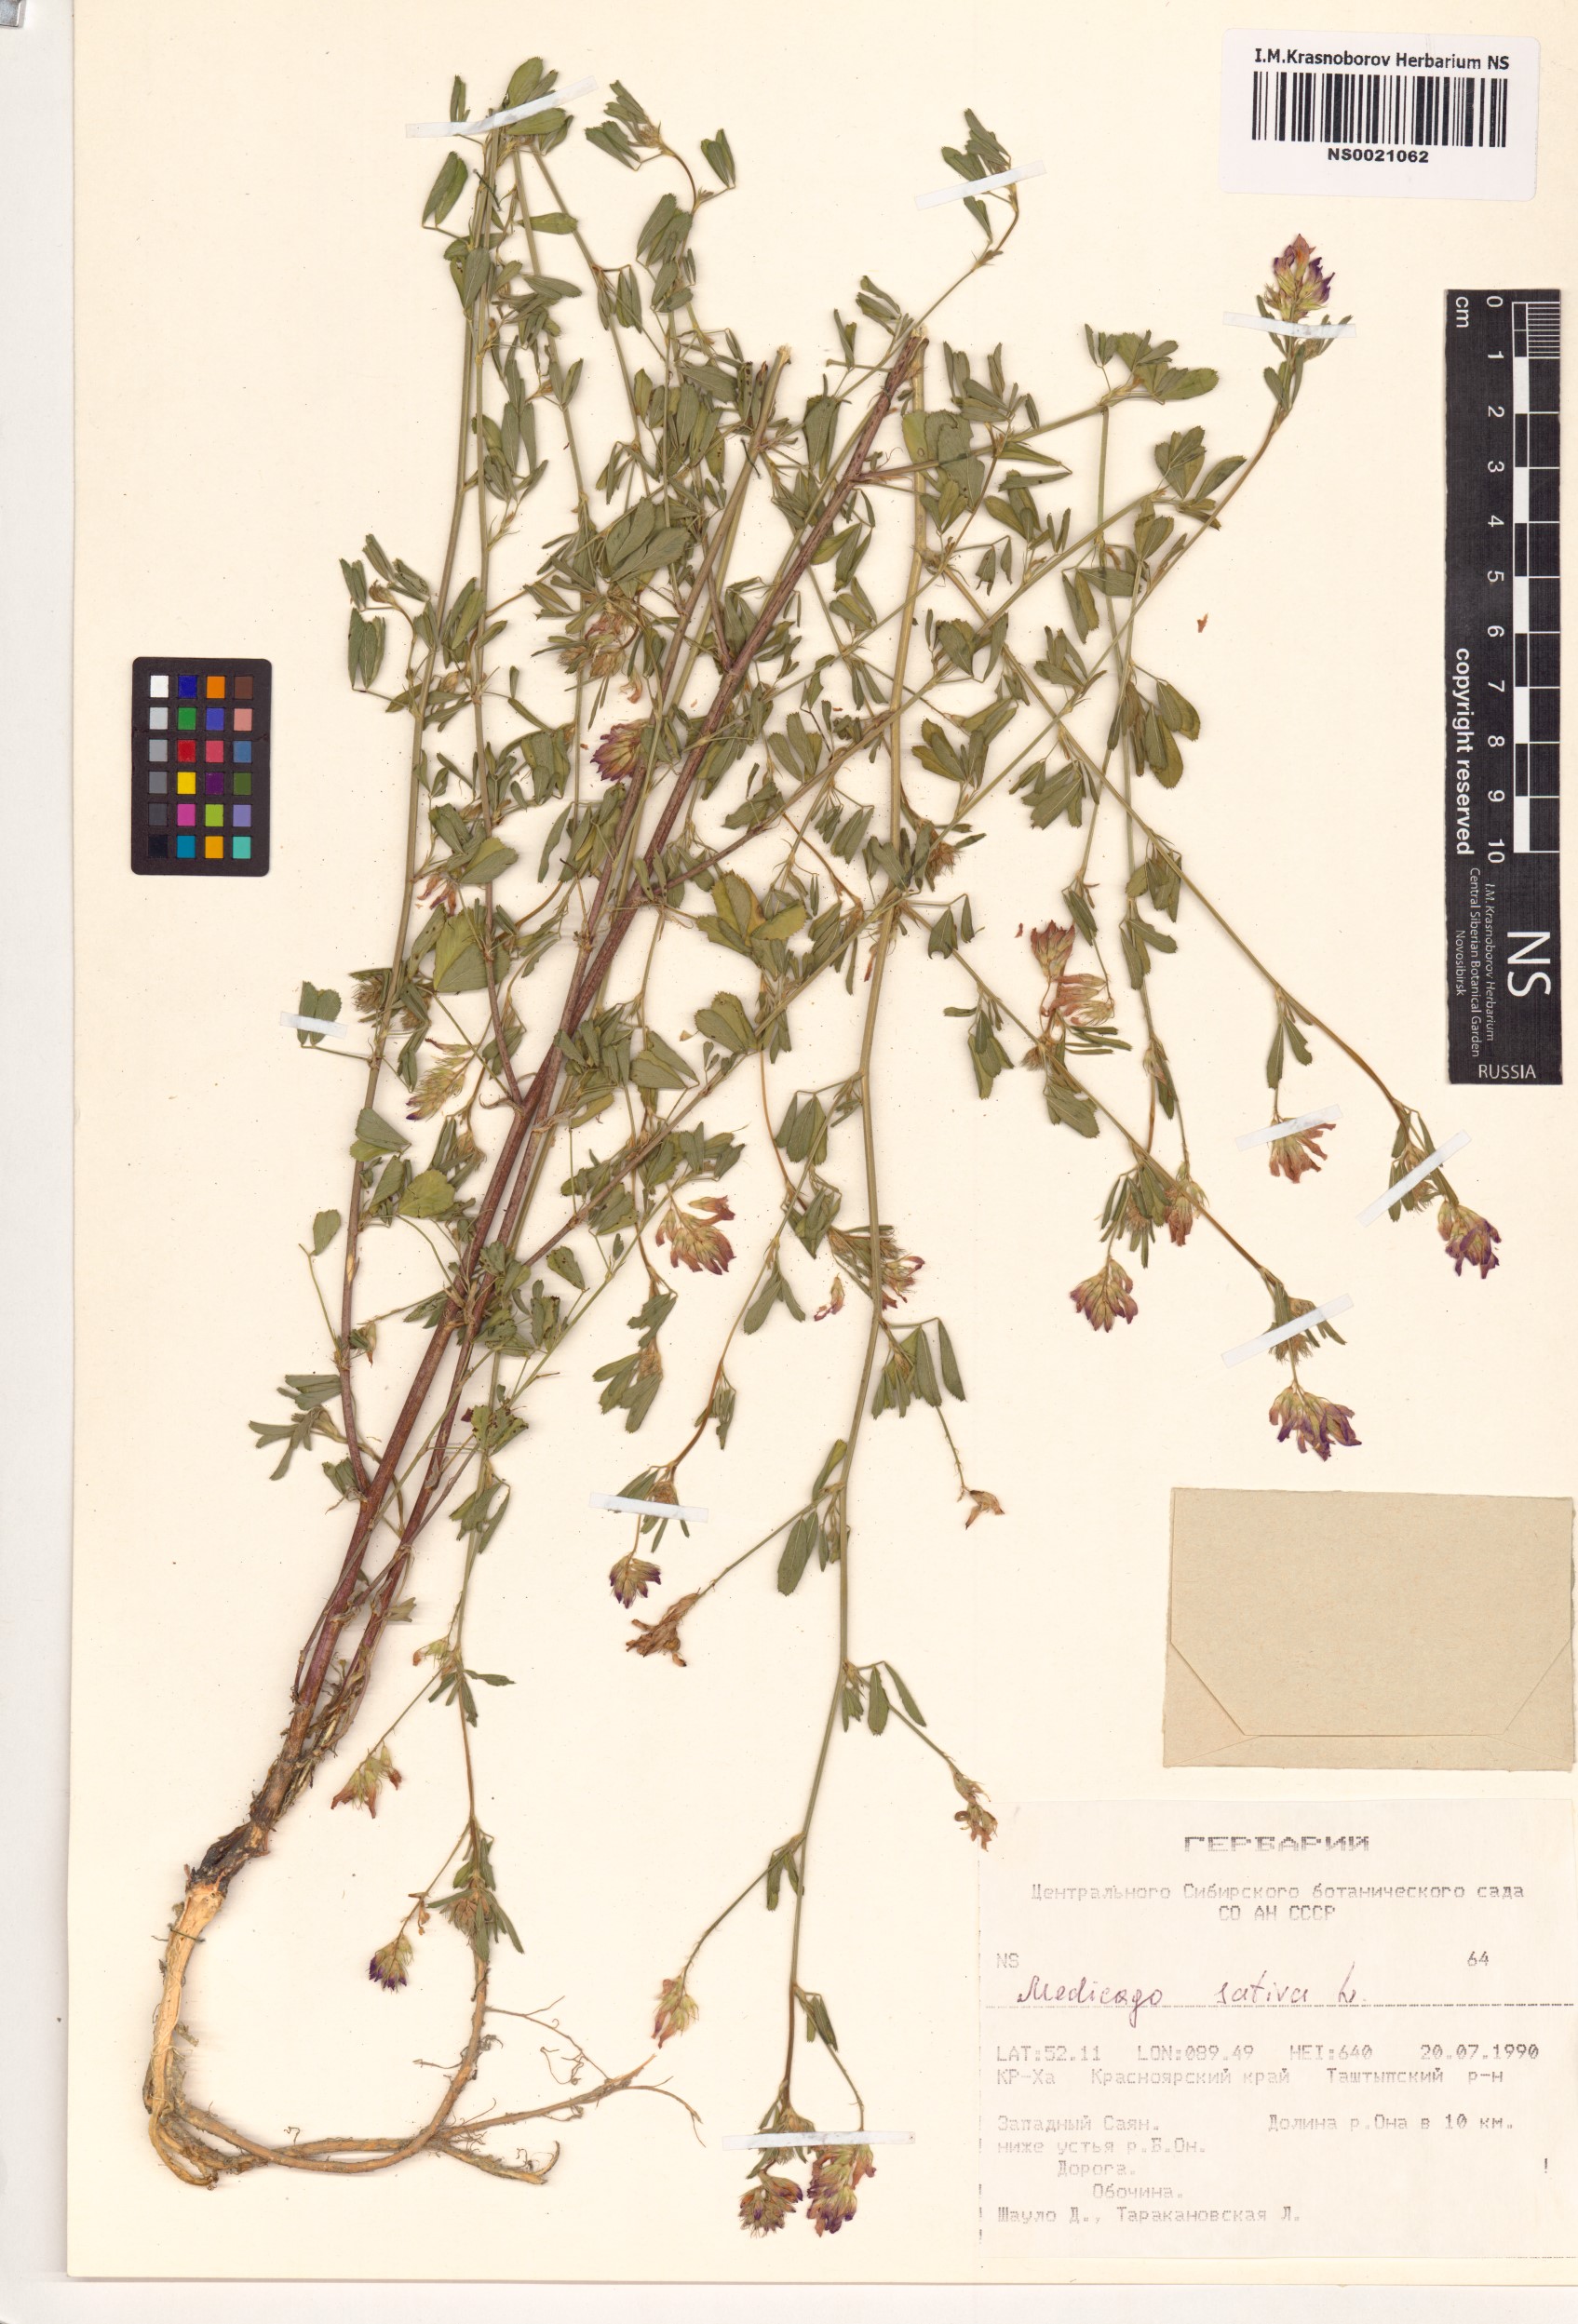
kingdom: Plantae
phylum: Tracheophyta
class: Magnoliopsida
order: Fabales
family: Fabaceae
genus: Medicago
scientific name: Medicago sativa
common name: Alfalfa
